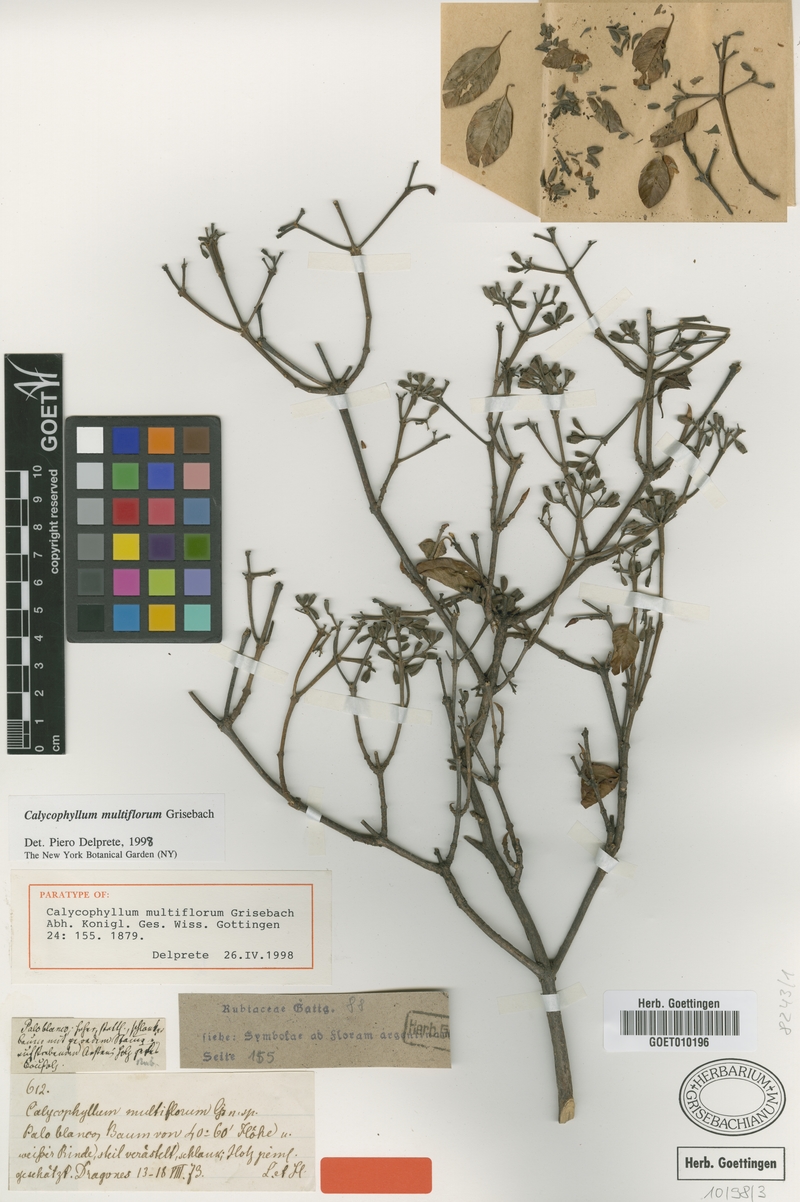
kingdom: Plantae
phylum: Tracheophyta
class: Magnoliopsida
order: Gentianales
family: Rubiaceae
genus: Calycophyllum
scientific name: Calycophyllum multiflorum
